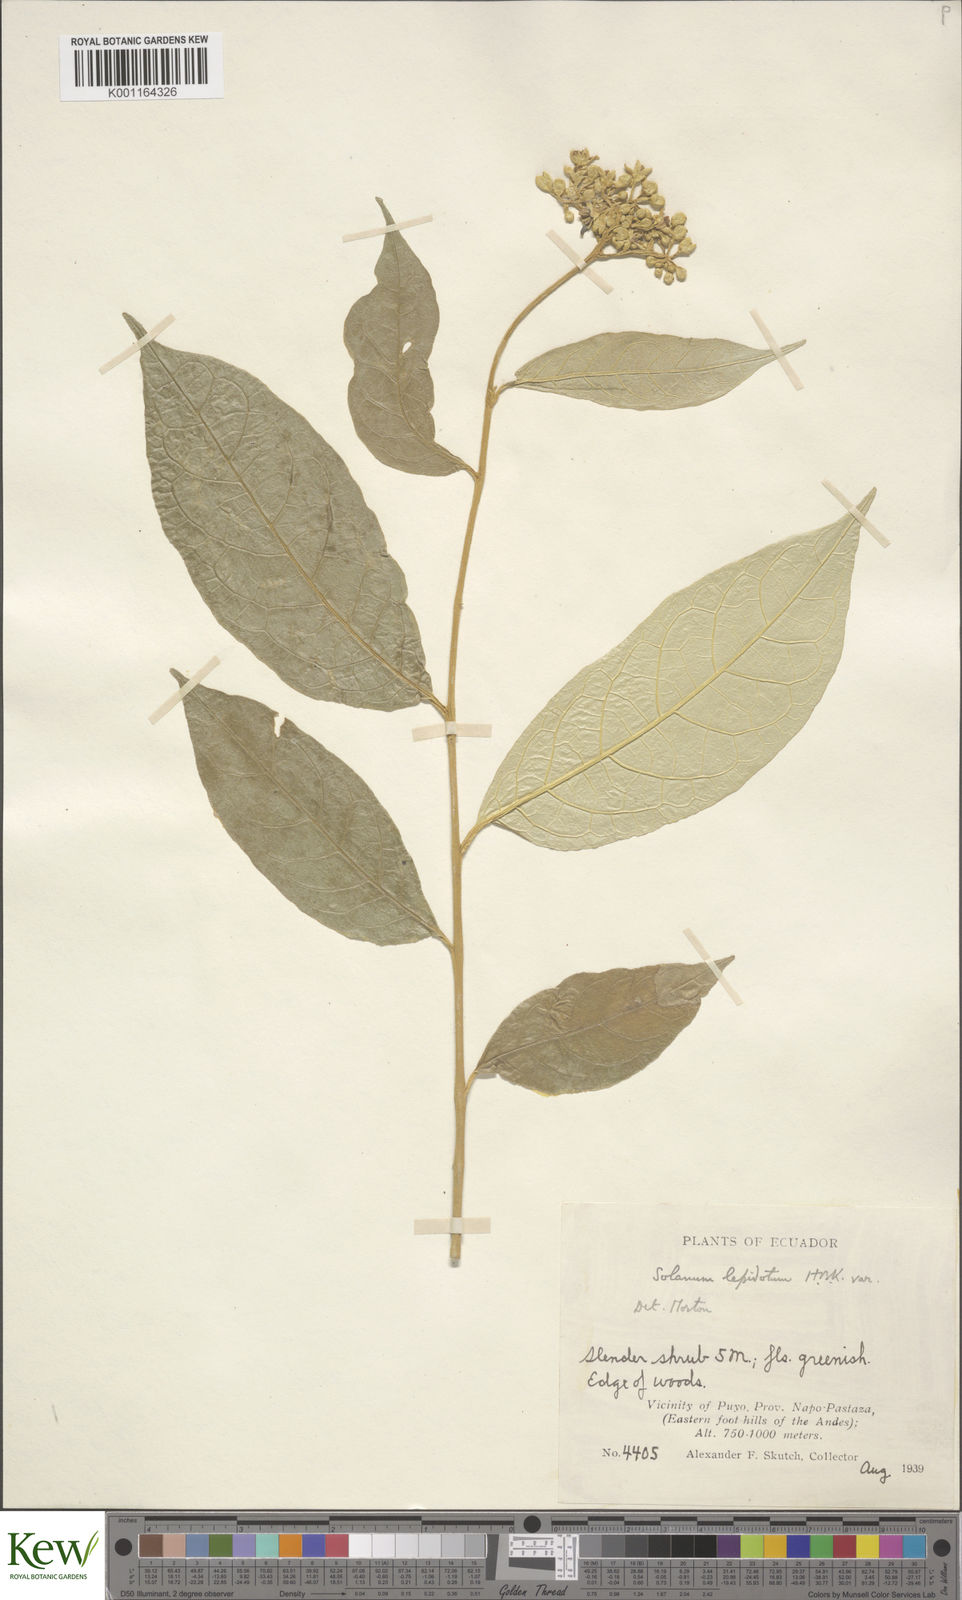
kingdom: Plantae
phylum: Tracheophyta
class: Magnoliopsida
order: Solanales
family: Solanaceae
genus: Solanum
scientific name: Solanum lepidotum
